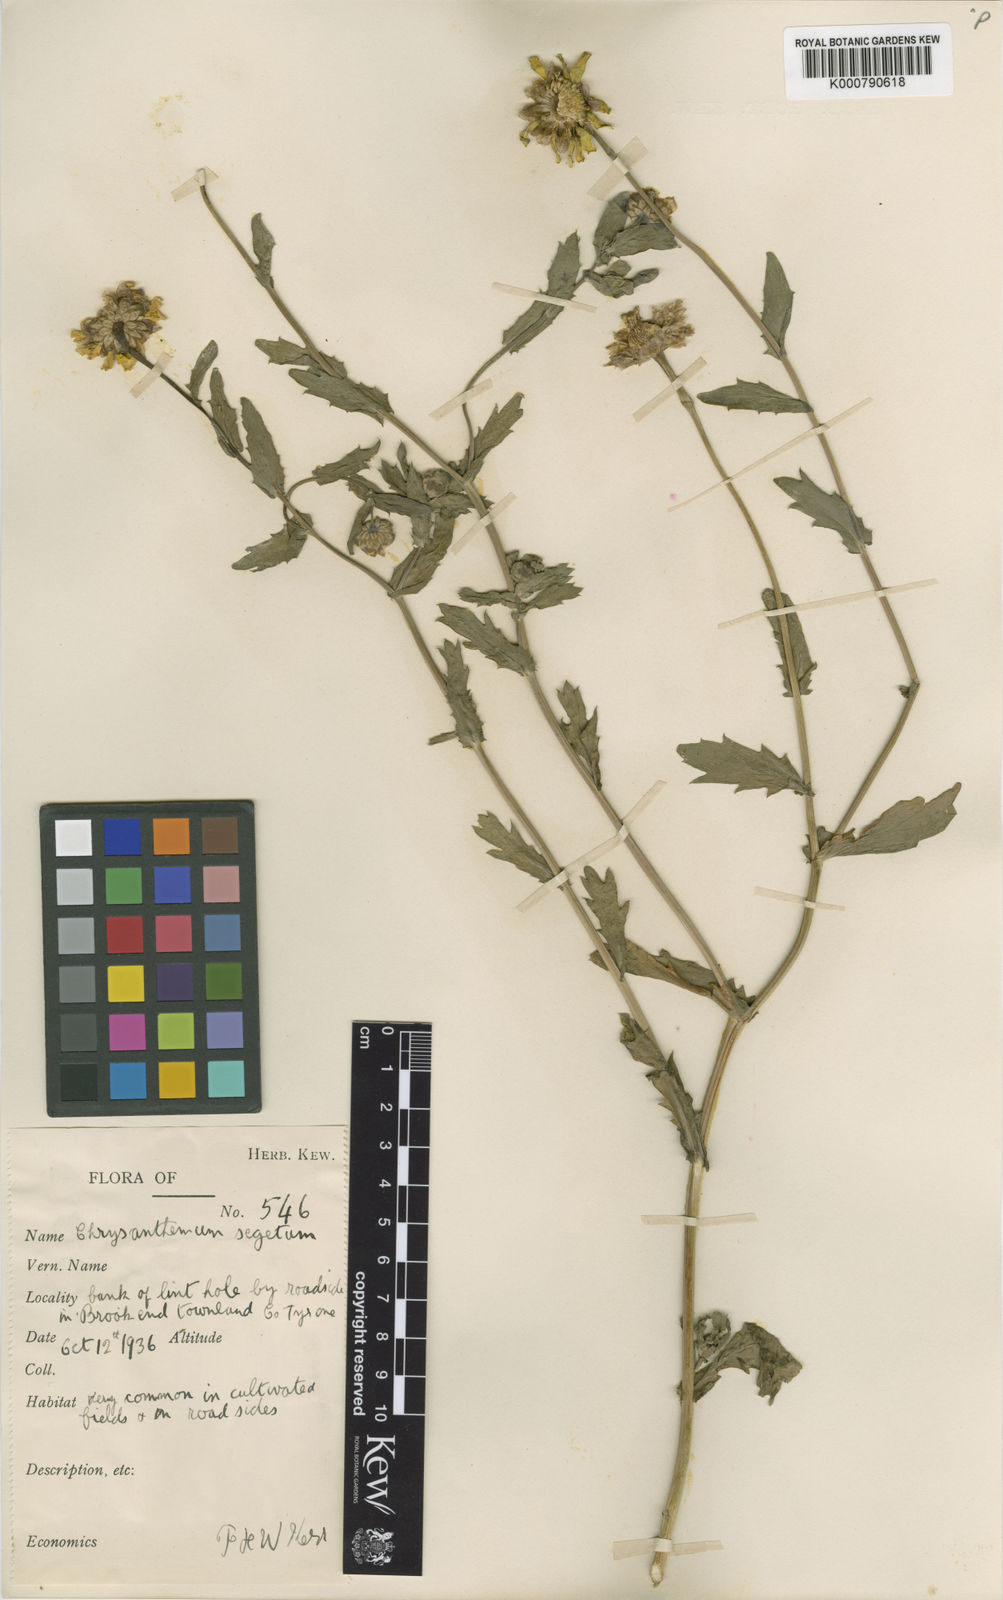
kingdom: Plantae
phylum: Tracheophyta
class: Magnoliopsida
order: Asterales
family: Asteraceae
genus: Glebionis
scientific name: Glebionis
